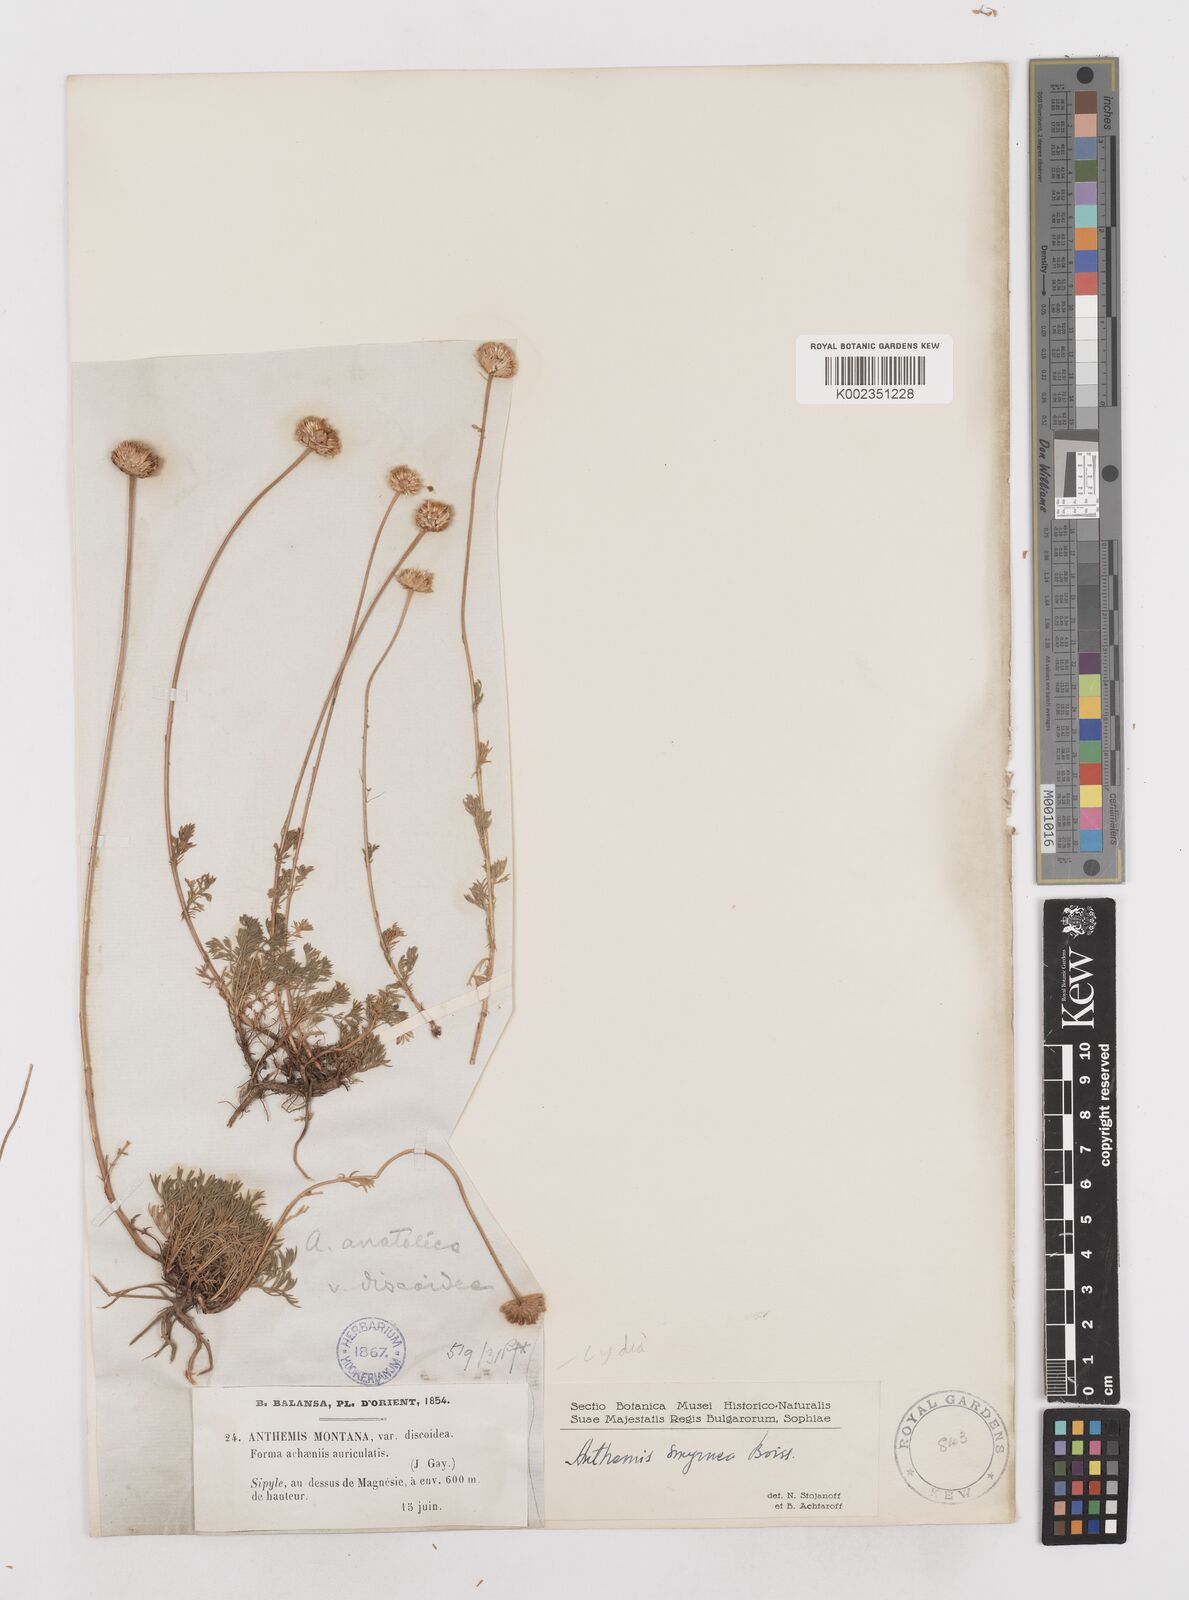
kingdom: Plantae
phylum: Tracheophyta
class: Magnoliopsida
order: Asterales
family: Asteraceae
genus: Anthemis
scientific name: Anthemis cretica
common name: Mountain dog-daisy
